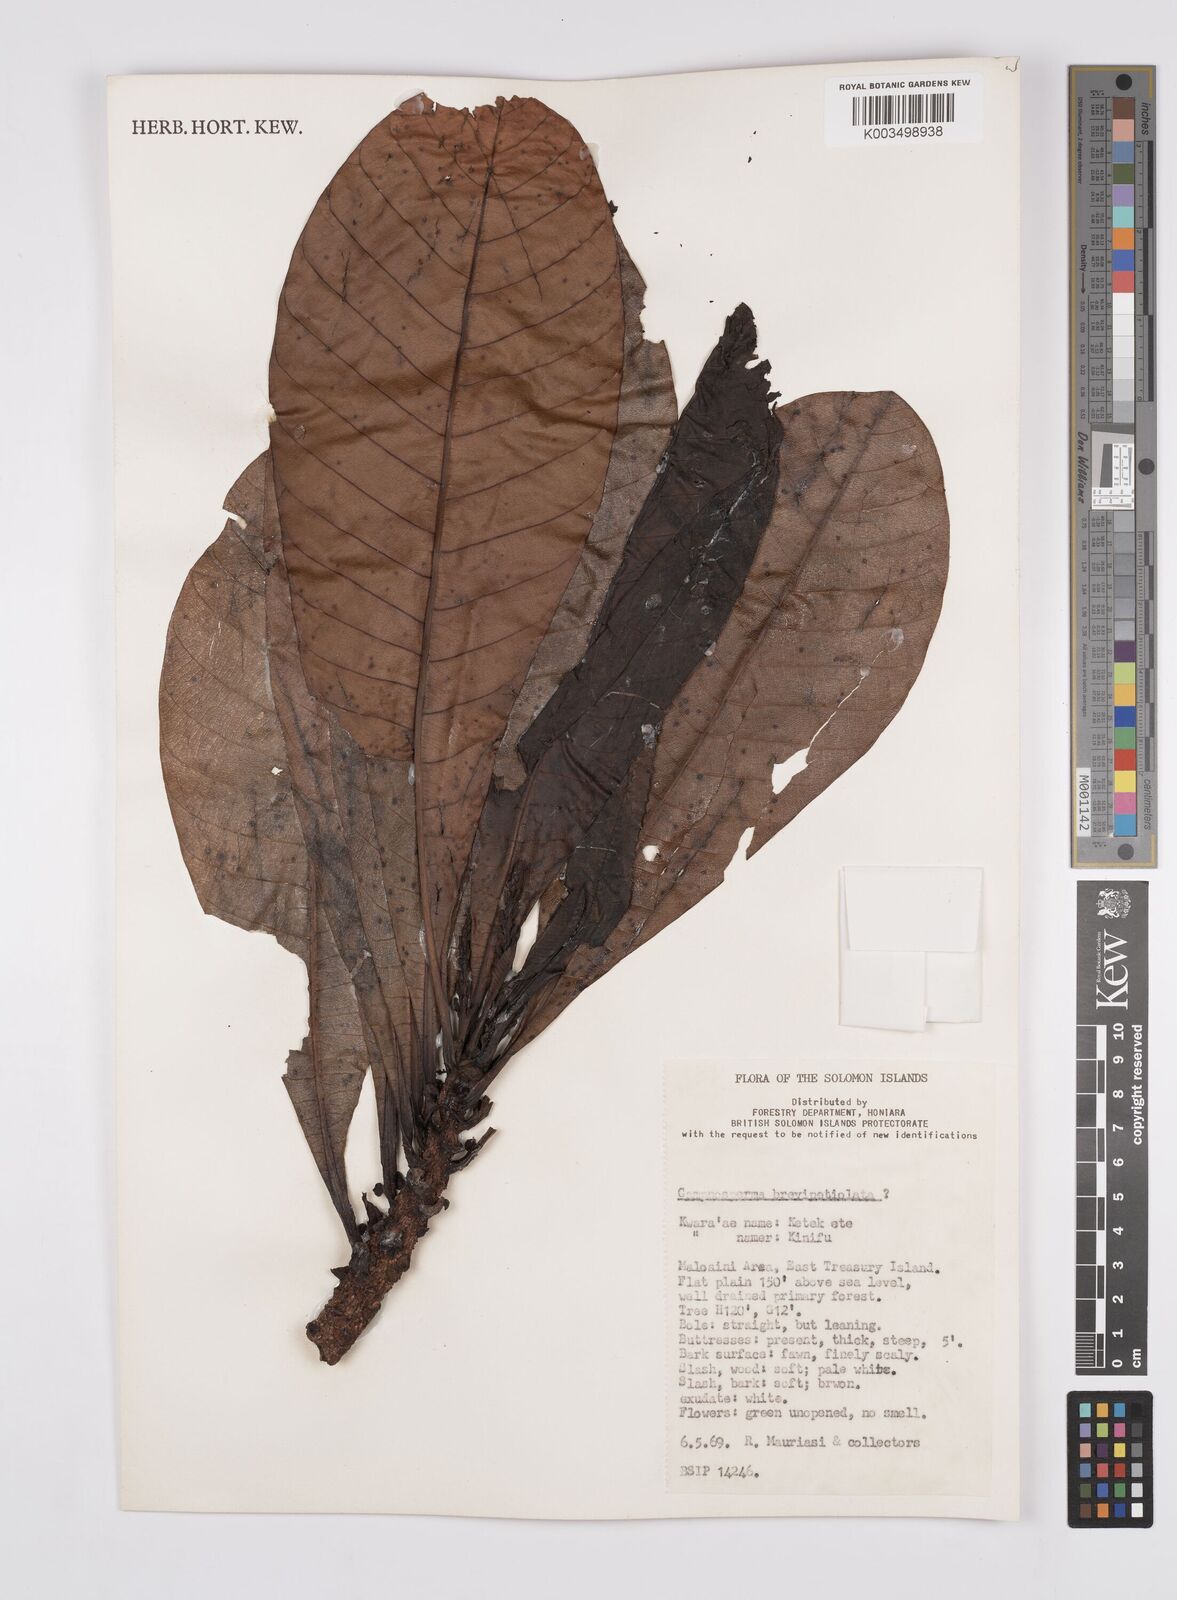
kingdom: Plantae
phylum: Tracheophyta
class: Magnoliopsida
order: Sapindales
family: Anacardiaceae
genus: Campnosperma
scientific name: Campnosperma brevipetiolatum
